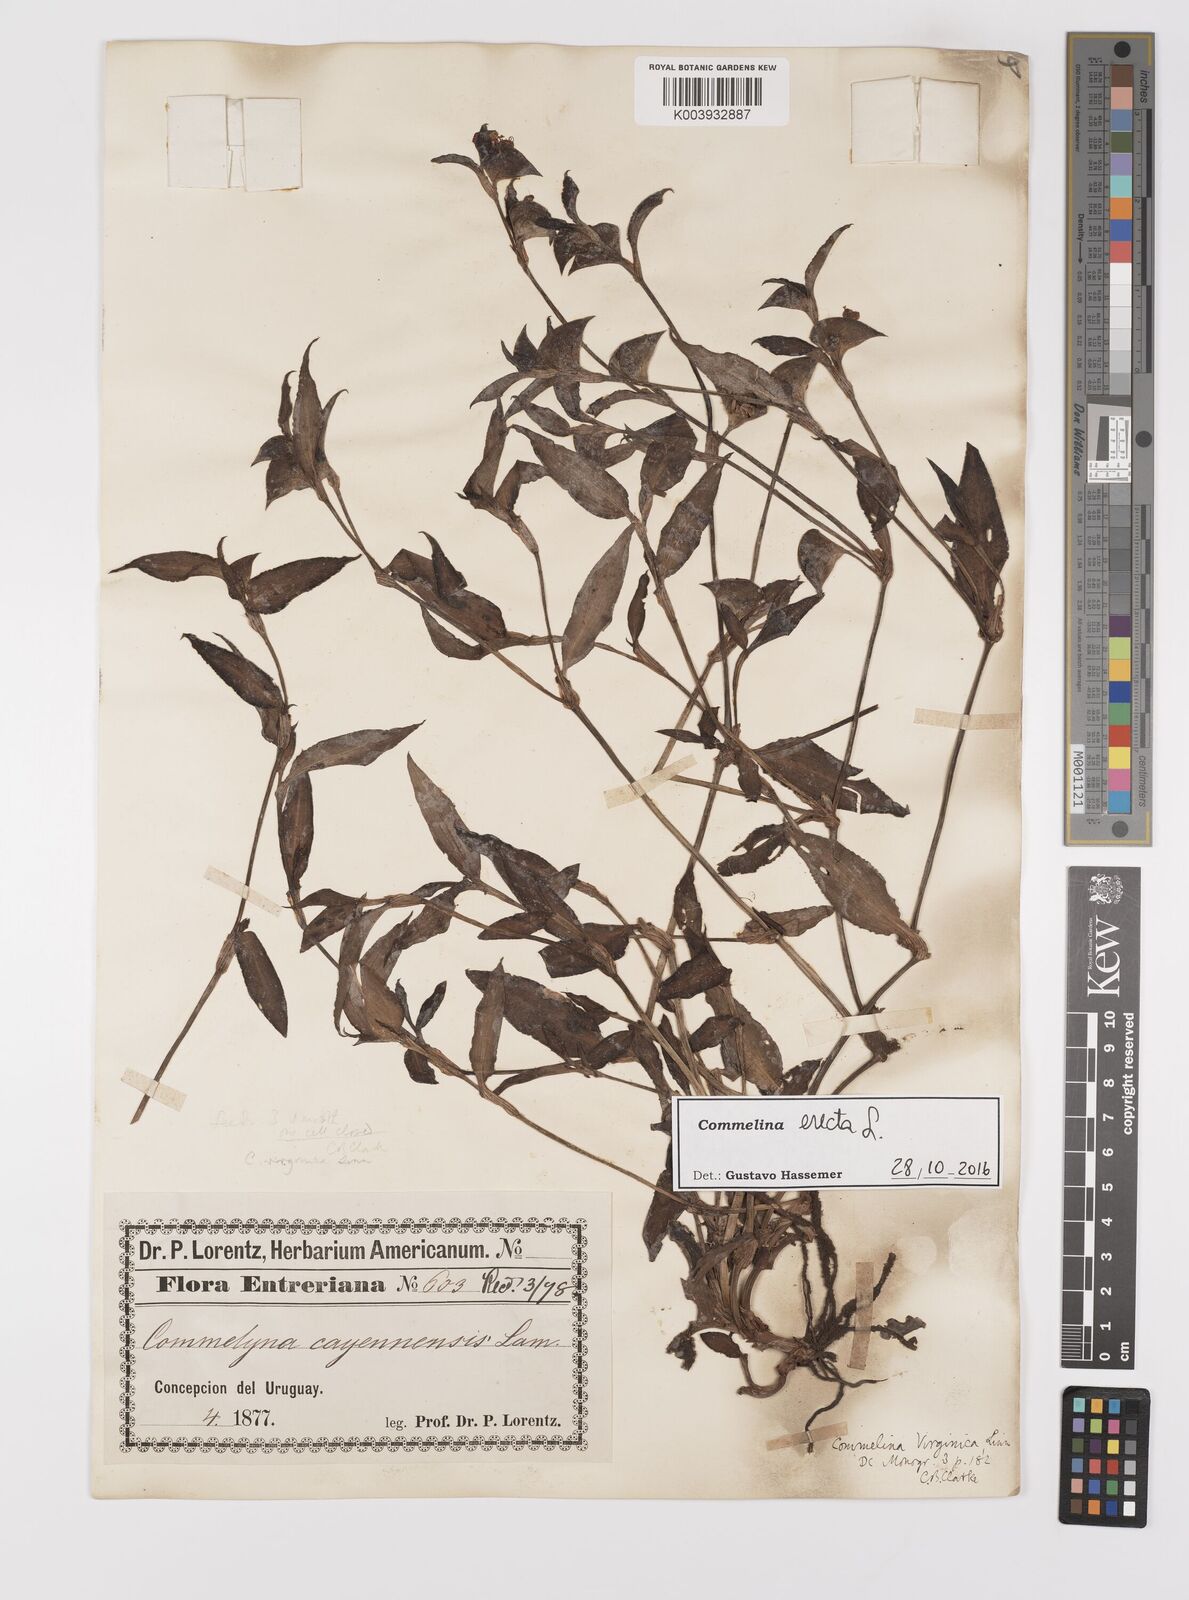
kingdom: Plantae
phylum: Tracheophyta
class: Liliopsida
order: Commelinales
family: Commelinaceae
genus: Commelina
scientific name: Commelina erecta
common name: Blousel blommetjie
